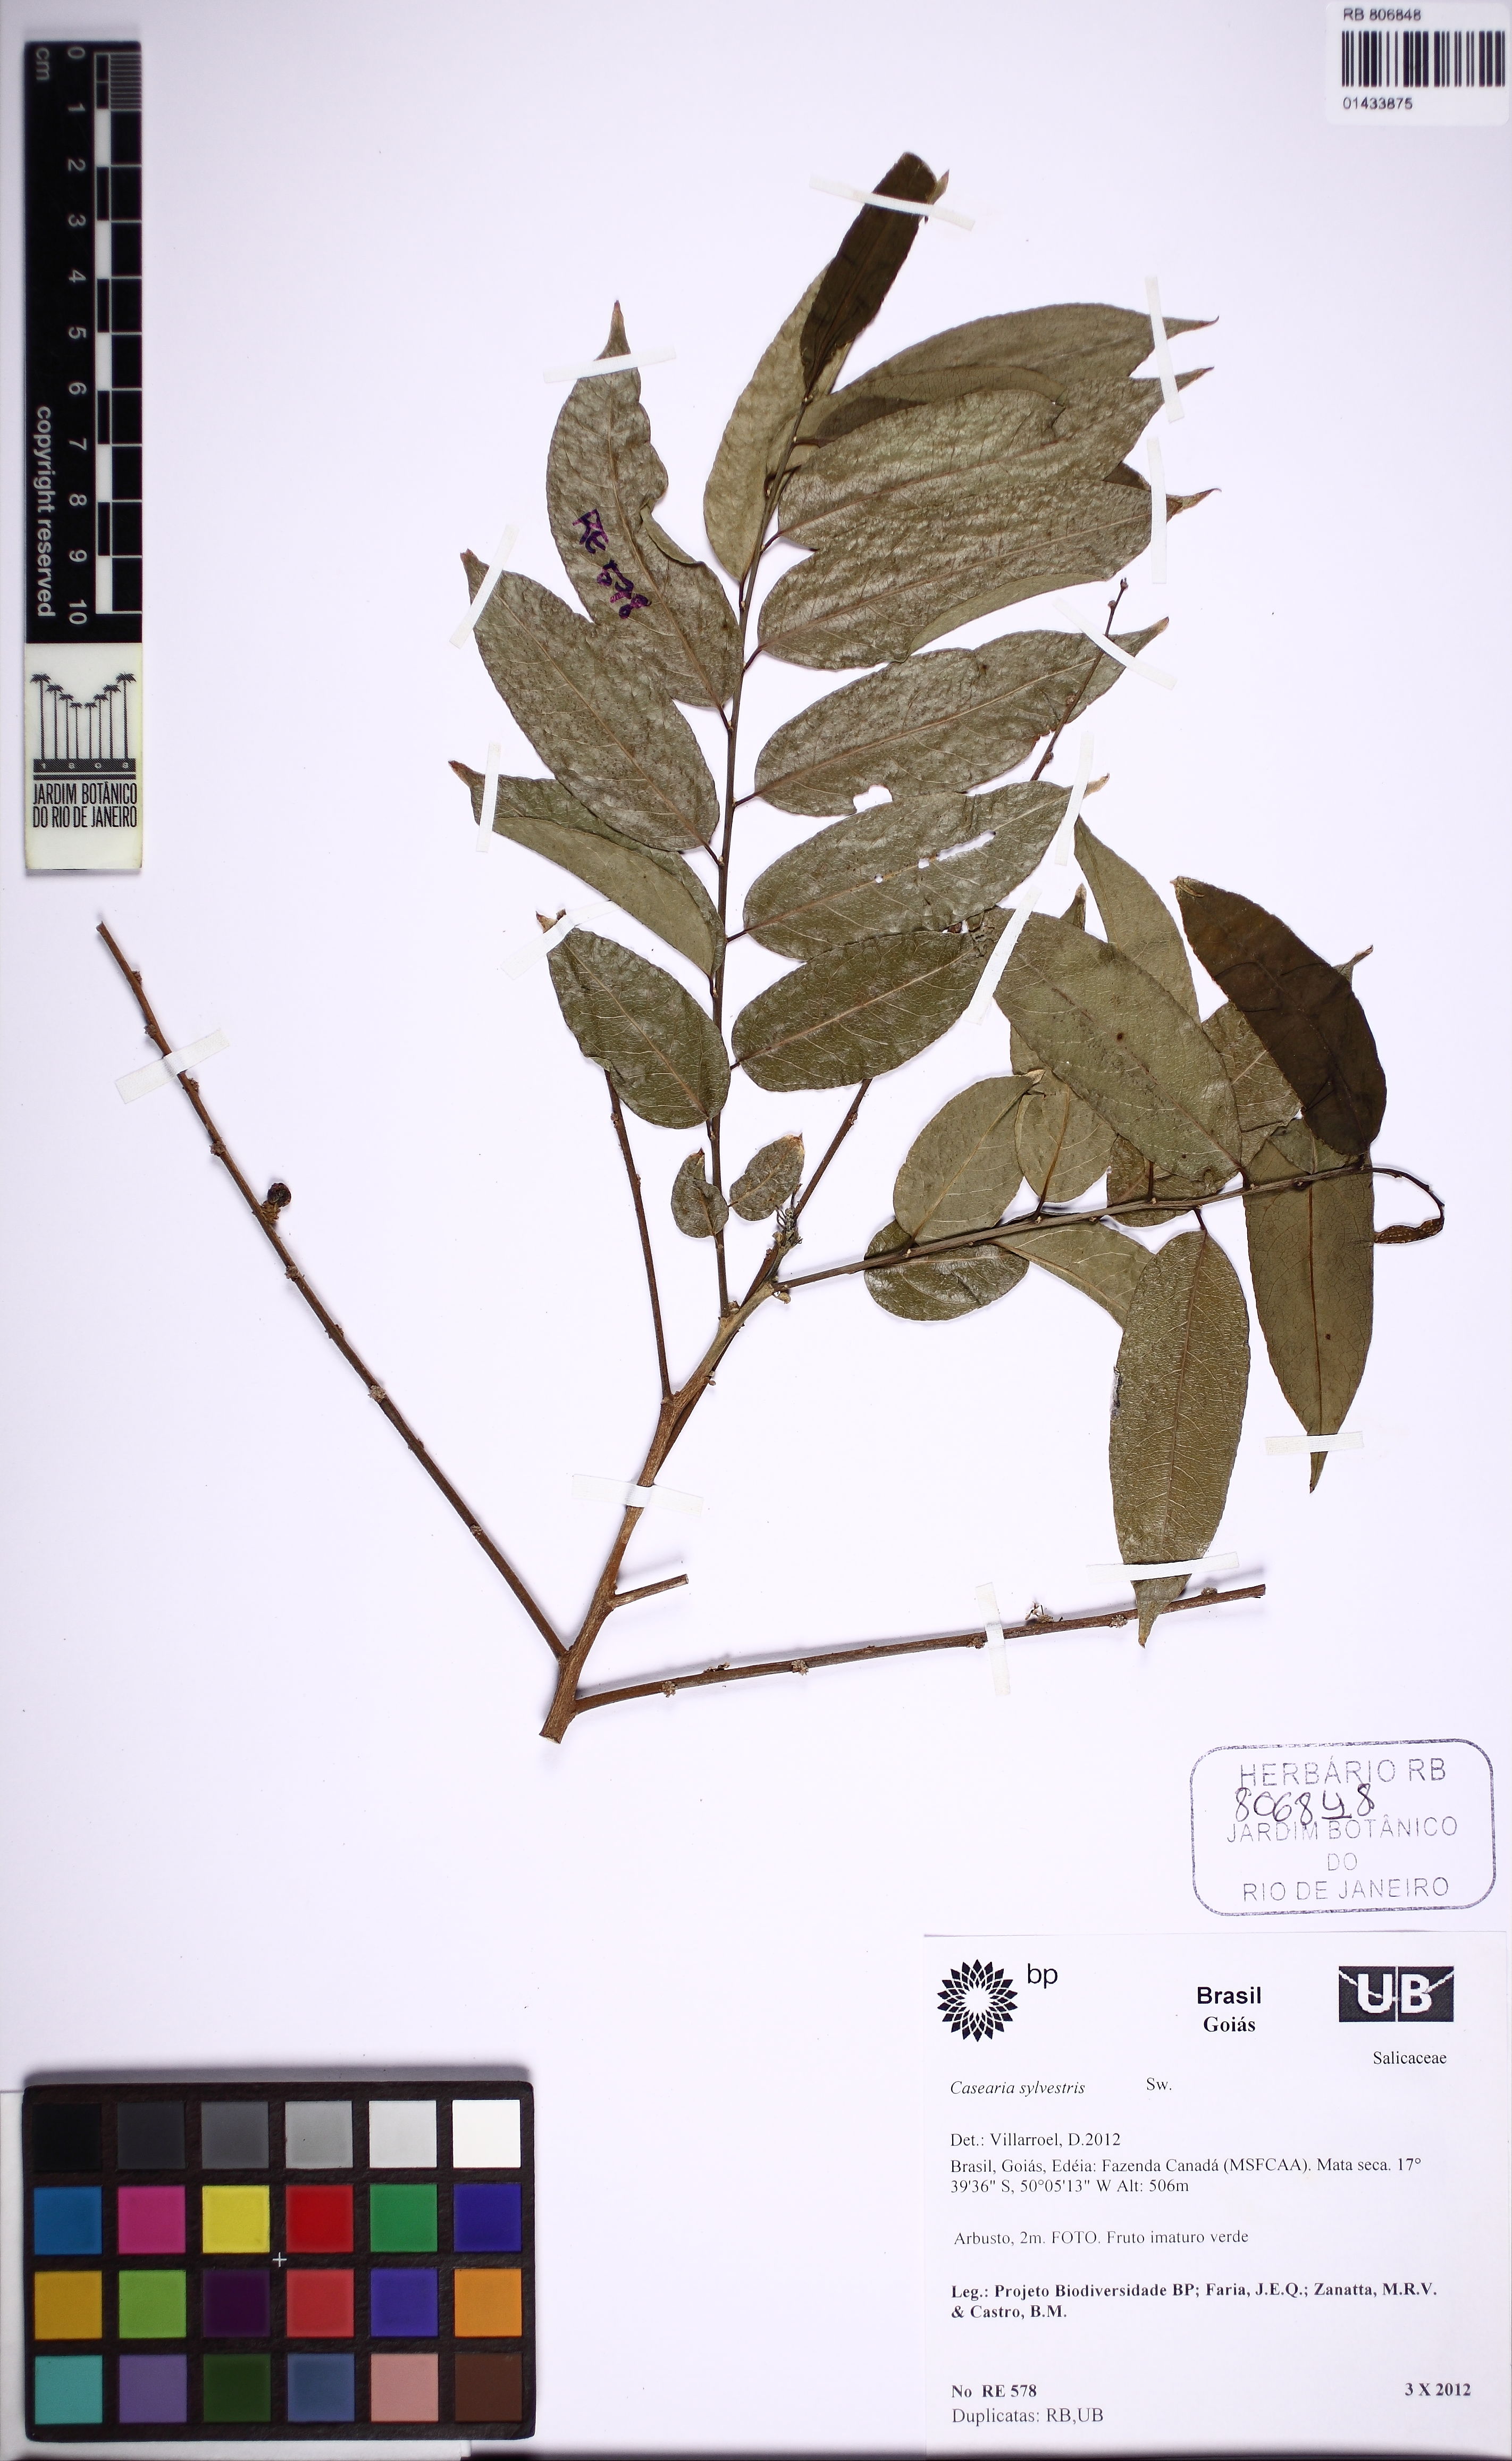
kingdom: Plantae
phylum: Tracheophyta
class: Magnoliopsida
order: Malpighiales
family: Salicaceae
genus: Casearia
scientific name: Casearia sylvestris
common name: Wild sage
